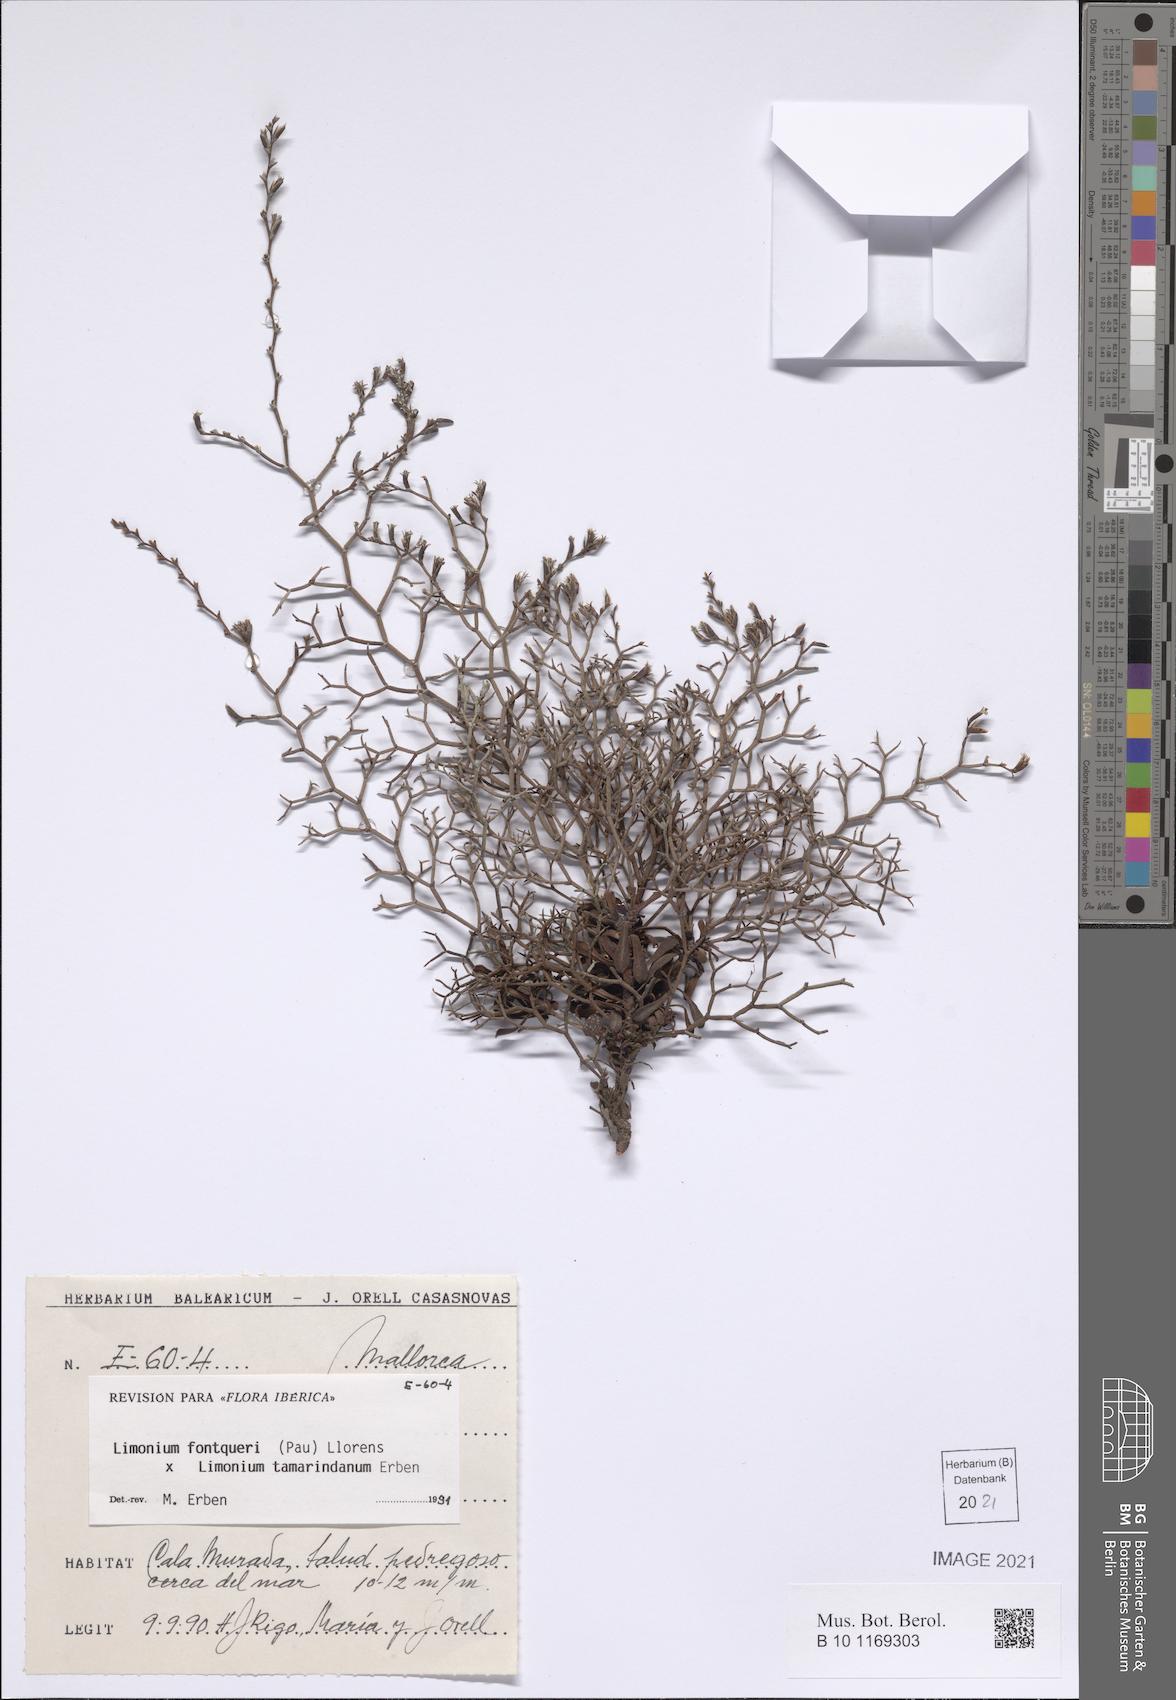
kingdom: Plantae
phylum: Tracheophyta
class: Magnoliopsida
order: Caryophyllales
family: Plumbaginaceae
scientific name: Plumbaginaceae
